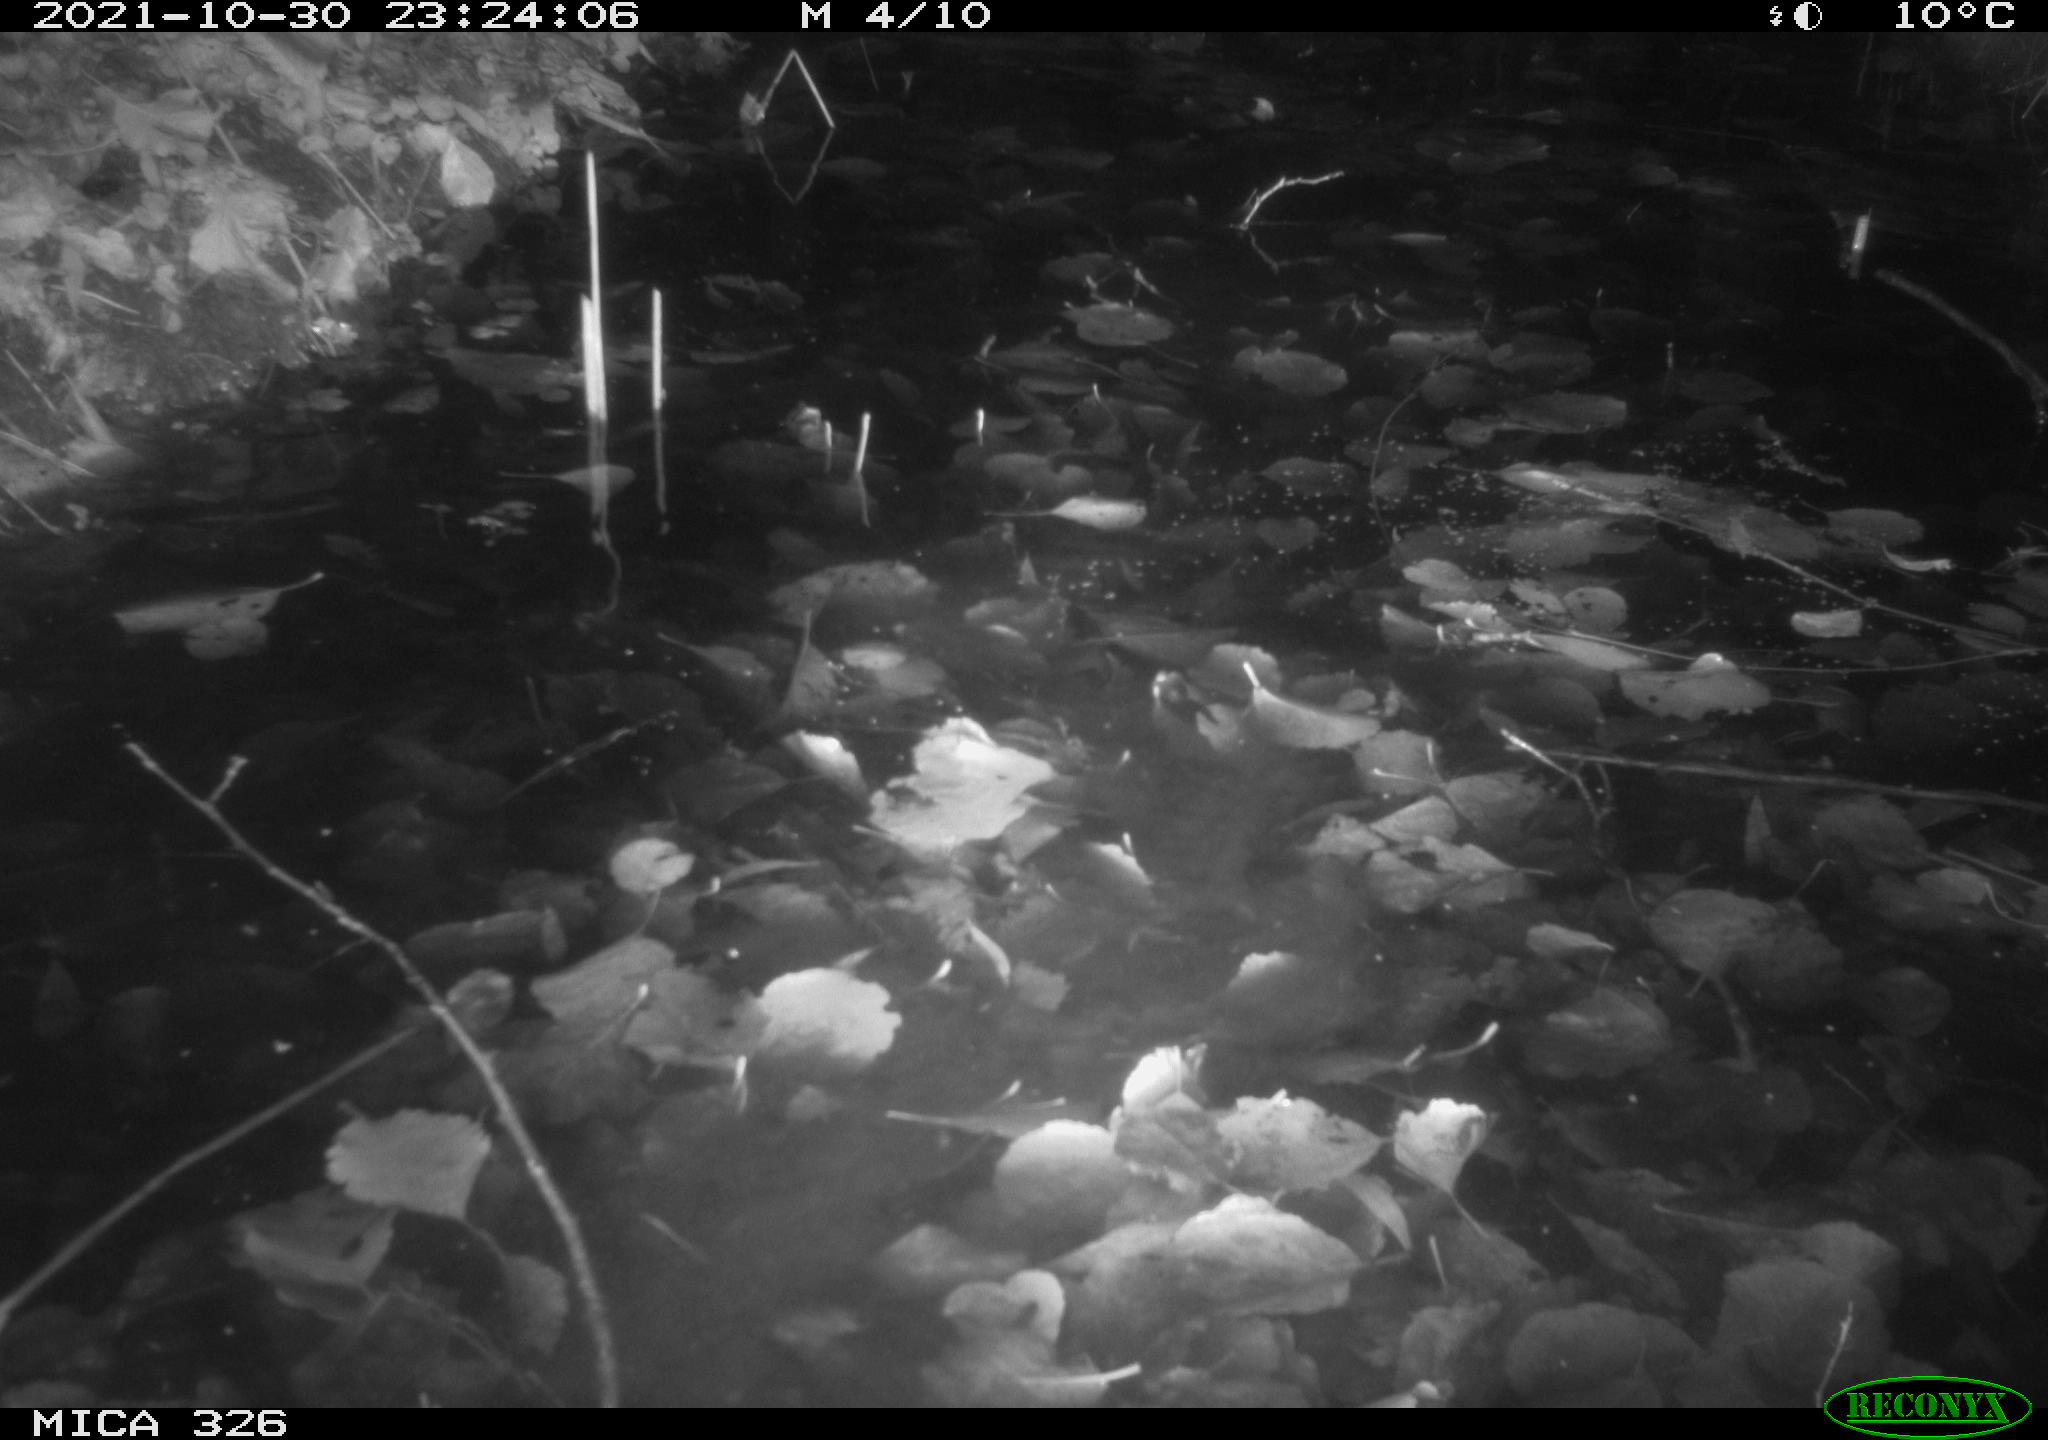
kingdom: Animalia
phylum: Chordata
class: Mammalia
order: Rodentia
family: Myocastoridae
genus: Myocastor
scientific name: Myocastor coypus
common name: Coypu
